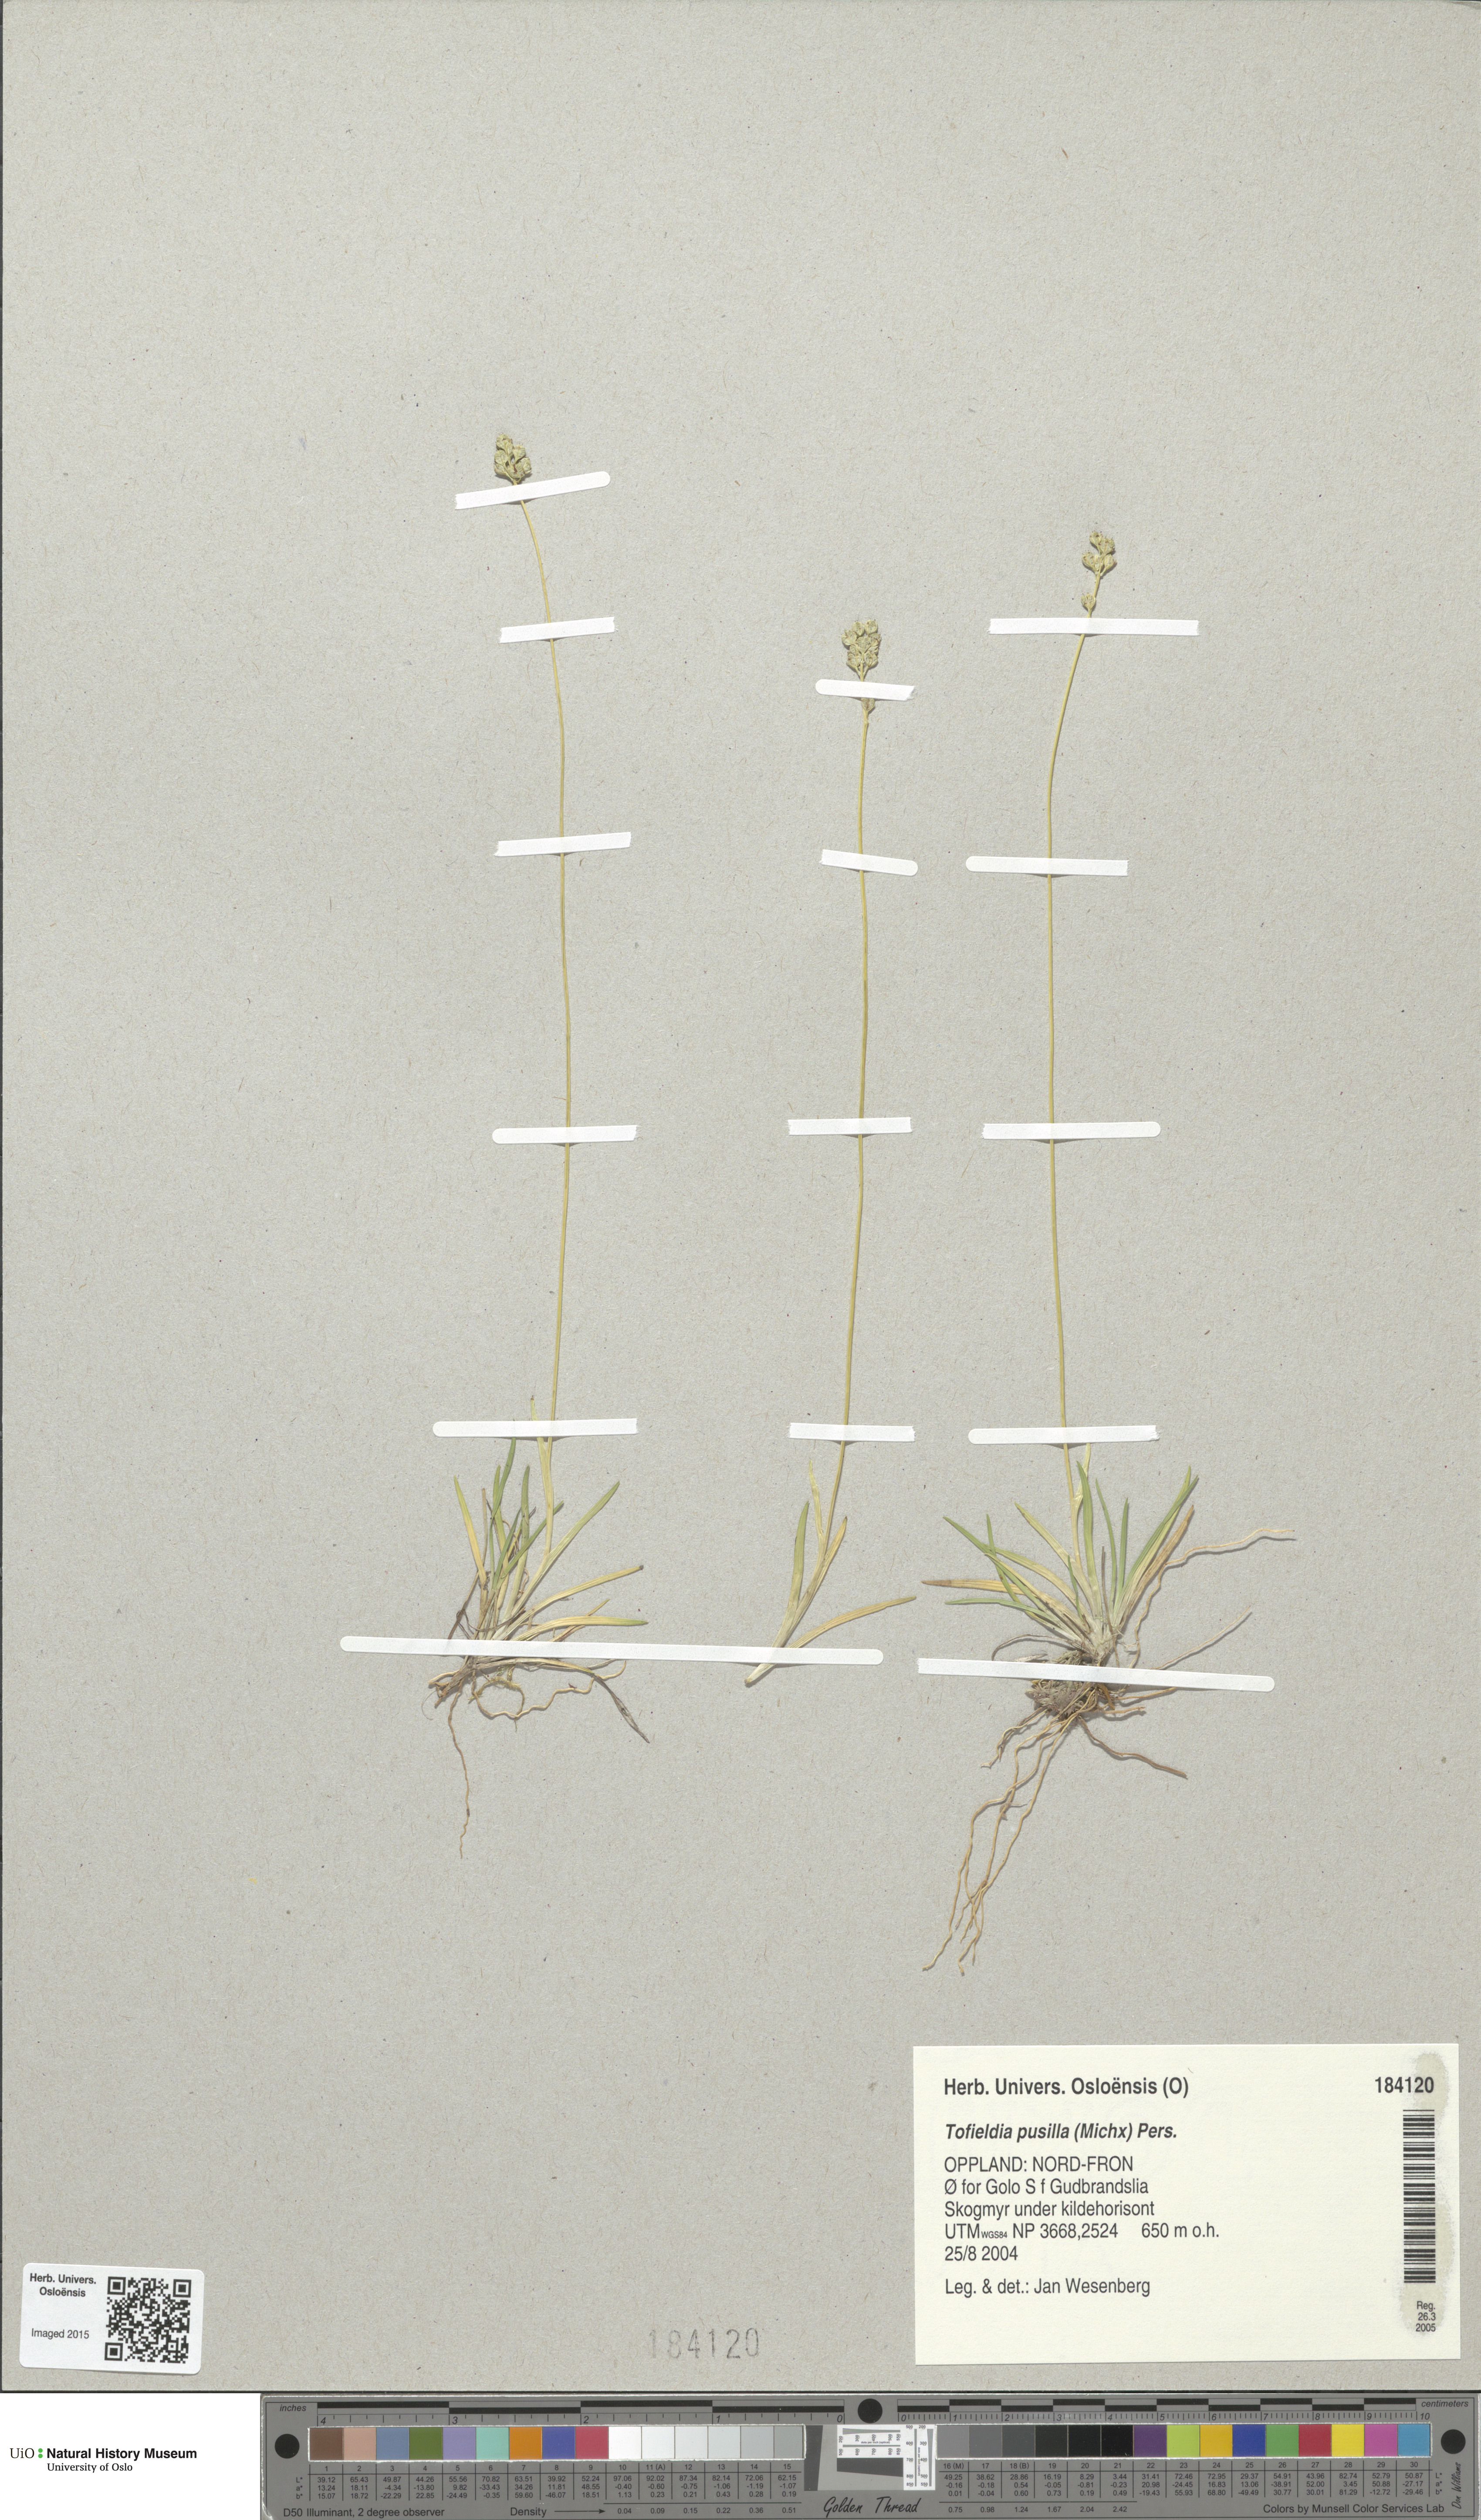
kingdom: Plantae
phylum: Tracheophyta
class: Liliopsida
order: Alismatales
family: Tofieldiaceae
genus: Tofieldia
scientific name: Tofieldia pusilla
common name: Scottish false asphodel
